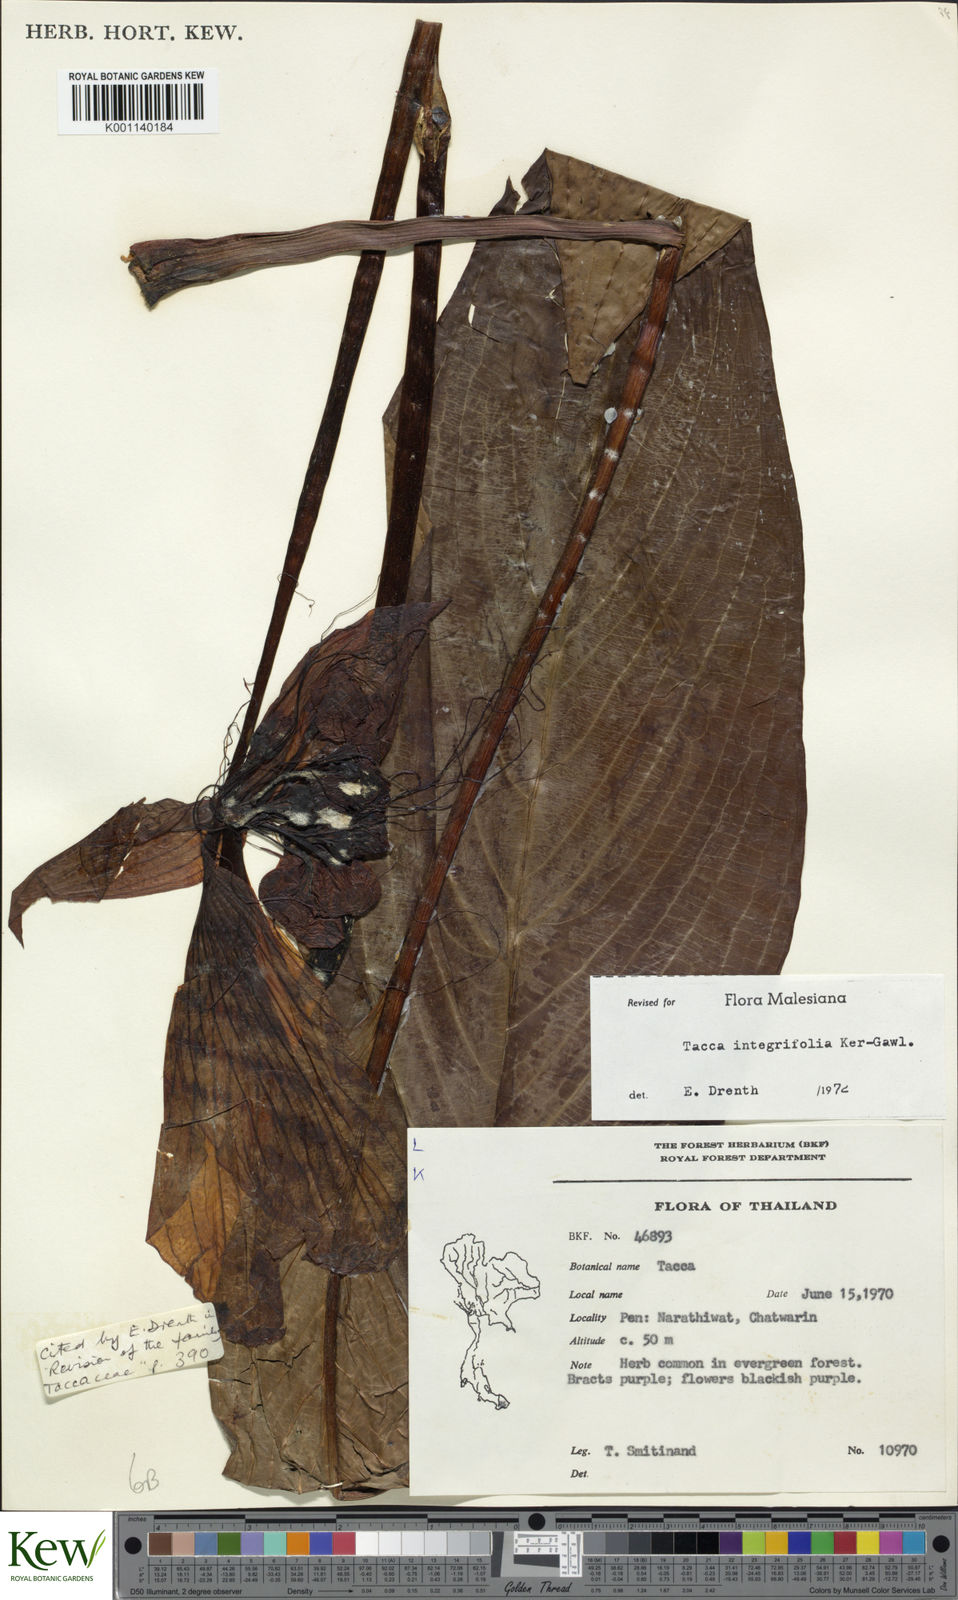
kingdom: Plantae
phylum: Tracheophyta
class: Liliopsida
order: Dioscoreales
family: Dioscoreaceae
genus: Tacca
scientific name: Tacca integrifolia
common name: Batplant
